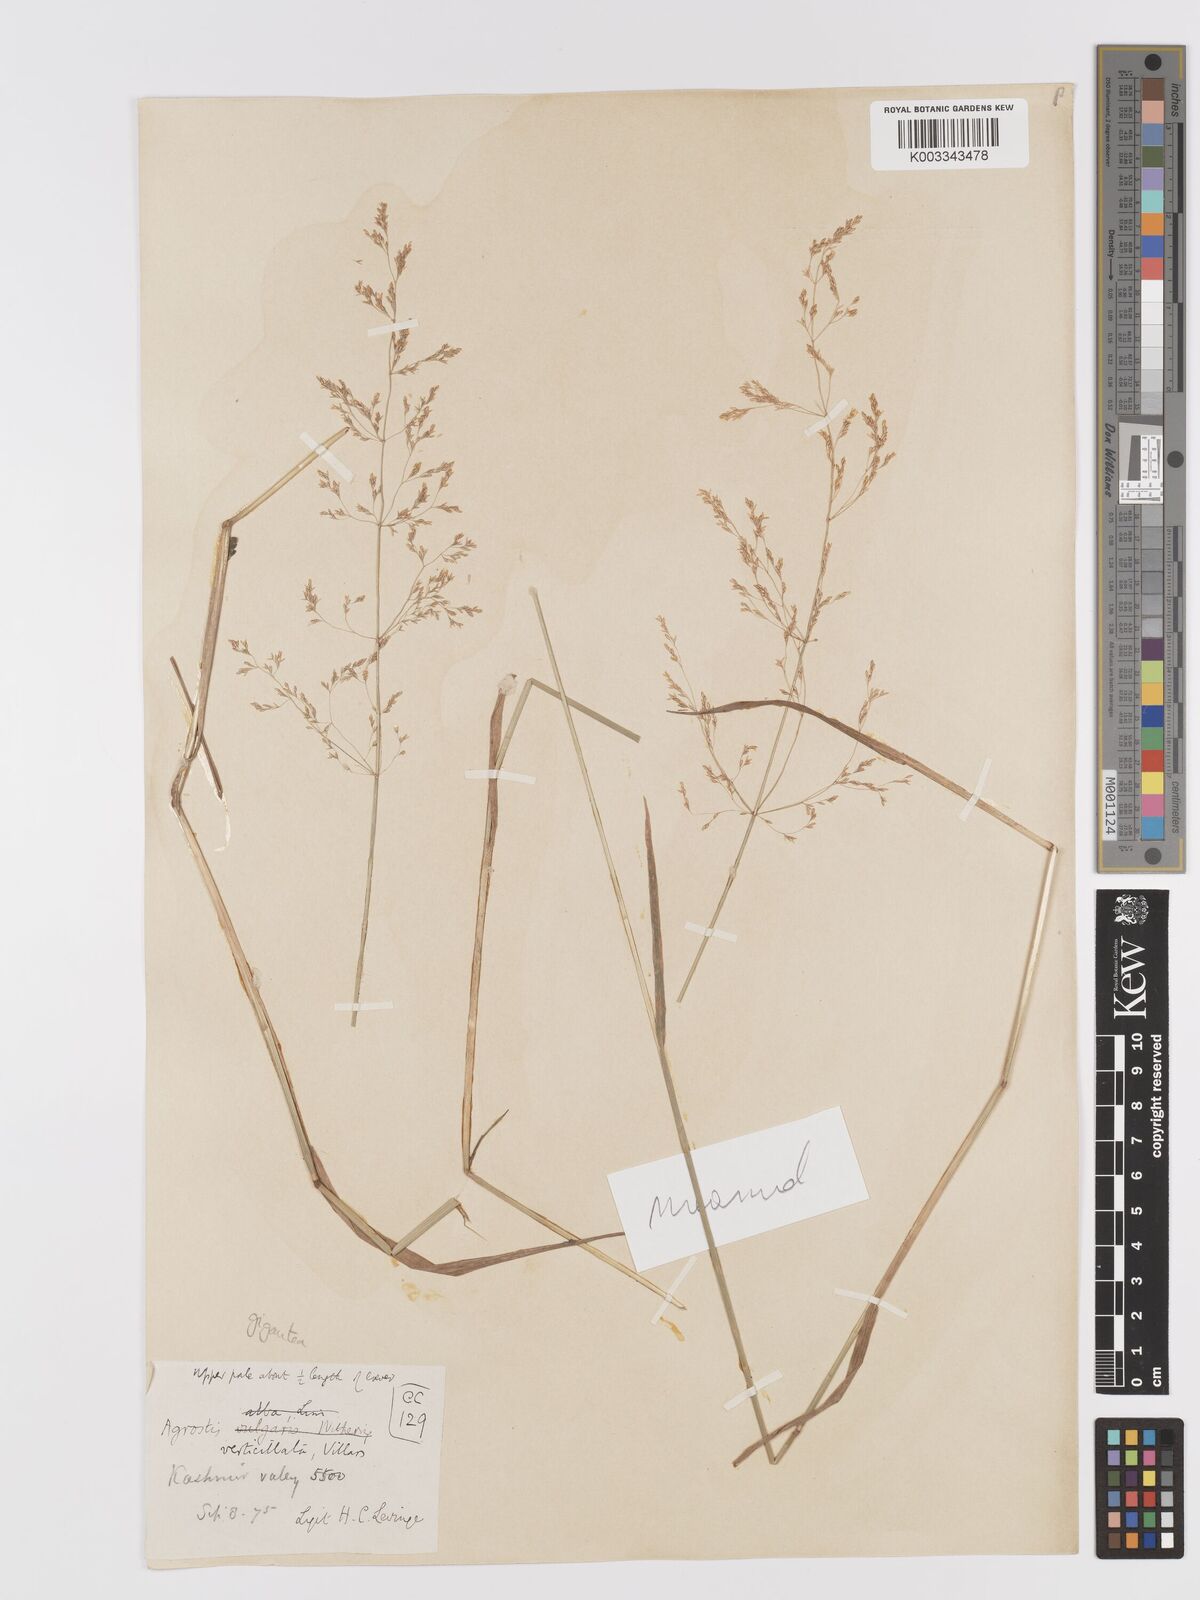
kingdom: Plantae
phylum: Tracheophyta
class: Liliopsida
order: Poales
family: Poaceae
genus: Agrostis
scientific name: Agrostis gigantea
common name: Black bent
